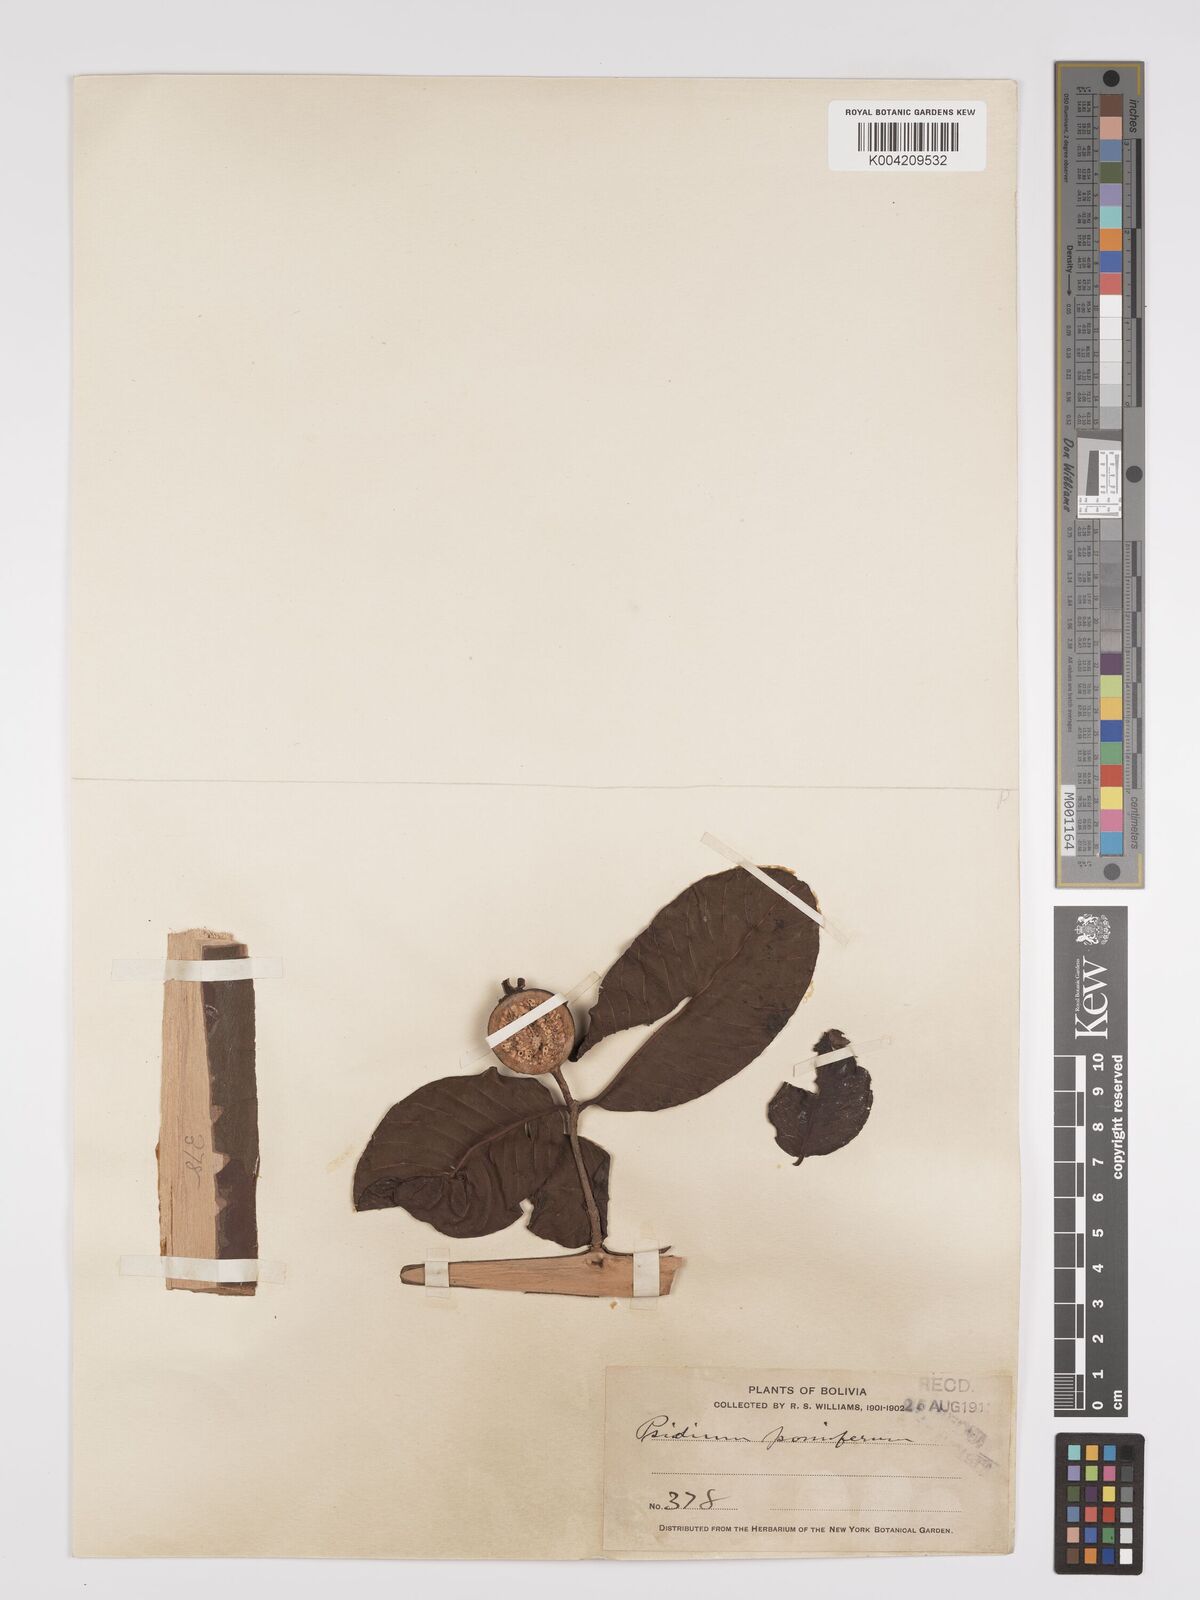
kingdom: Plantae
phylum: Tracheophyta
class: Magnoliopsida
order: Myrtales
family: Myrtaceae
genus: Psidium
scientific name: Psidium guajava
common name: Guava
